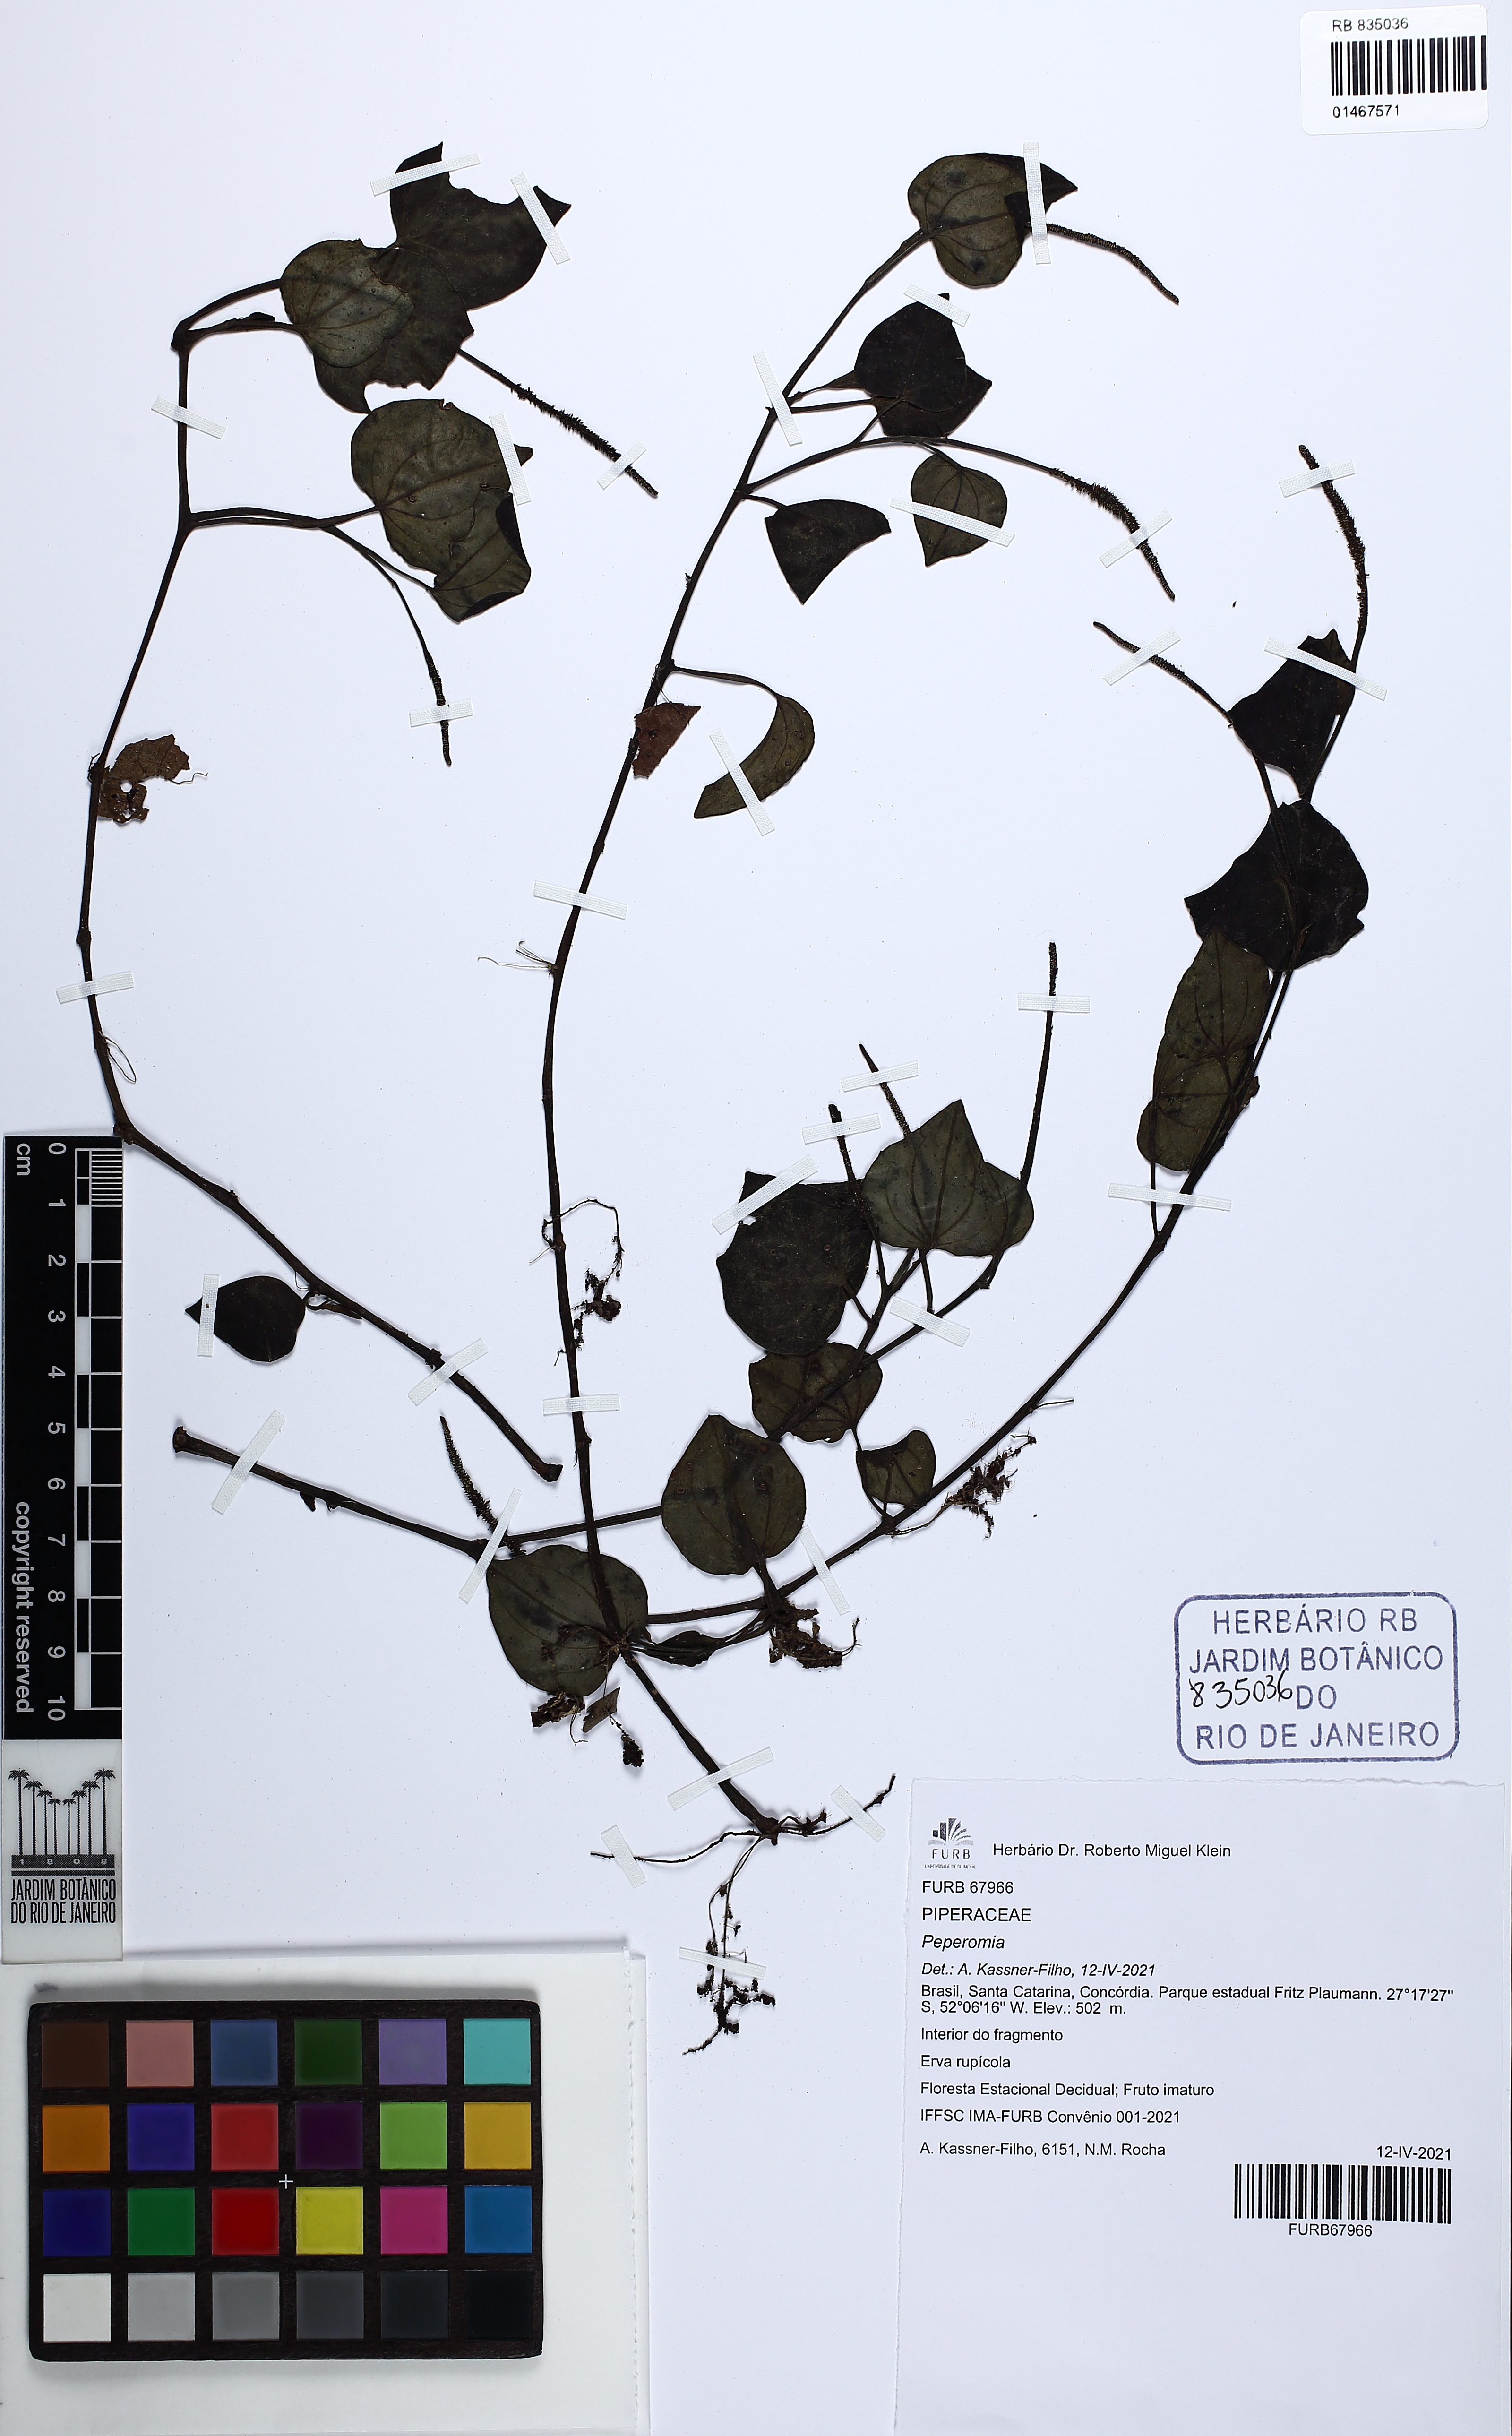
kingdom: Plantae
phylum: Tracheophyta
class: Magnoliopsida
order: Piperales
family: Piperaceae
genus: Peperomia
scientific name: Peperomia urocarpa
